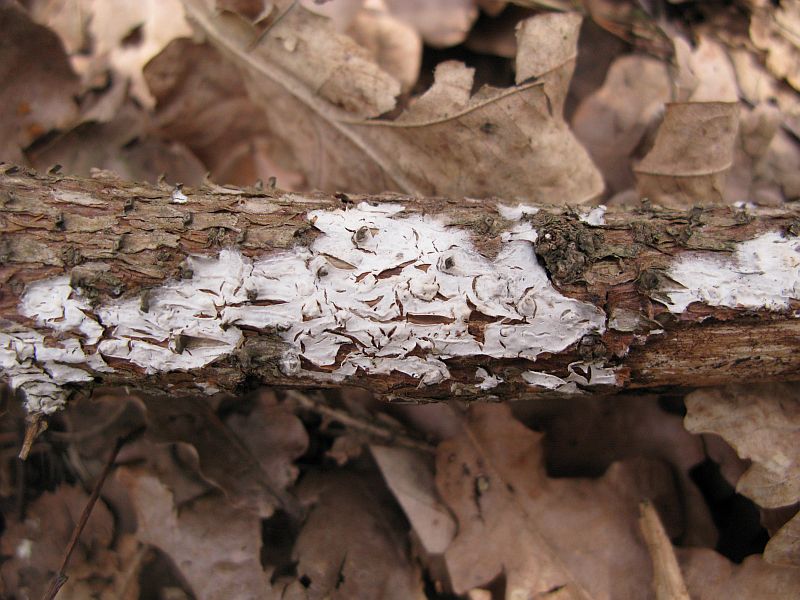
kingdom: Fungi
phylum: Basidiomycota
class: Agaricomycetes
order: Corticiales
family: Corticiaceae
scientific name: Corticiaceae
